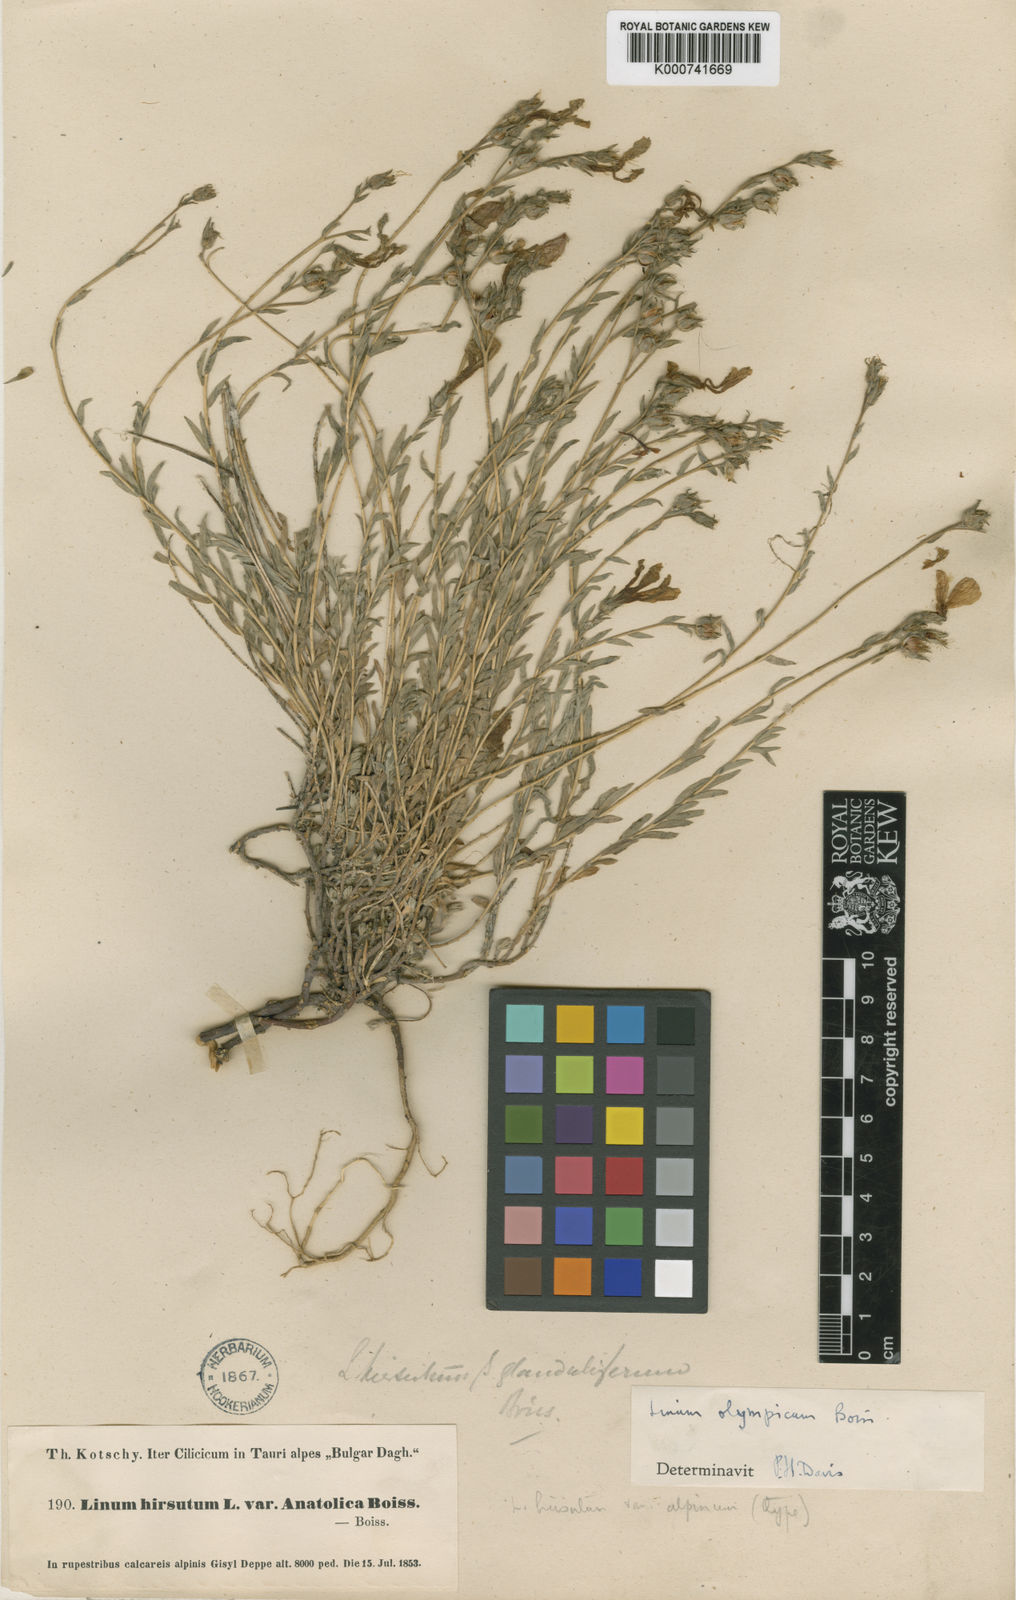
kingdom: Plantae
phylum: Tracheophyta
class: Magnoliopsida
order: Malpighiales
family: Linaceae
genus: Linum
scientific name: Linum olympicum
